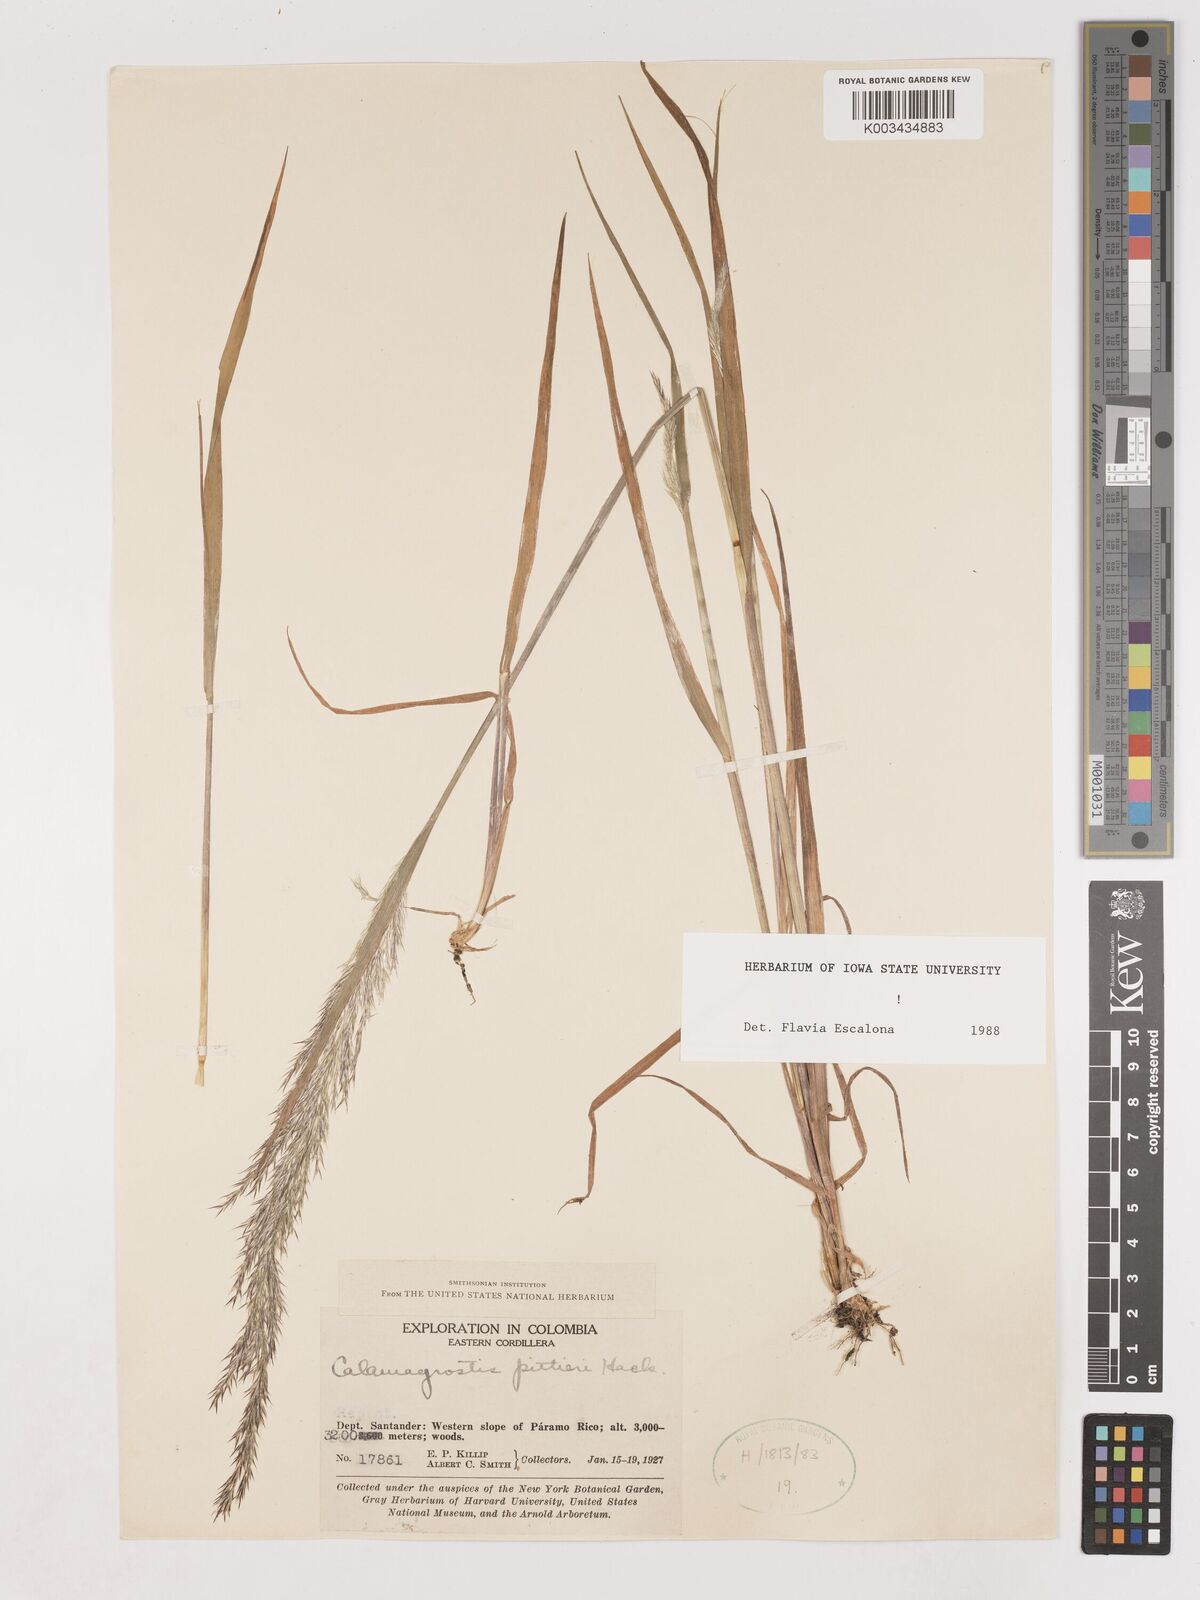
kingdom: Plantae
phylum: Tracheophyta
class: Liliopsida
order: Poales
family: Poaceae
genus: Calamagrostis
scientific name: Calamagrostis
